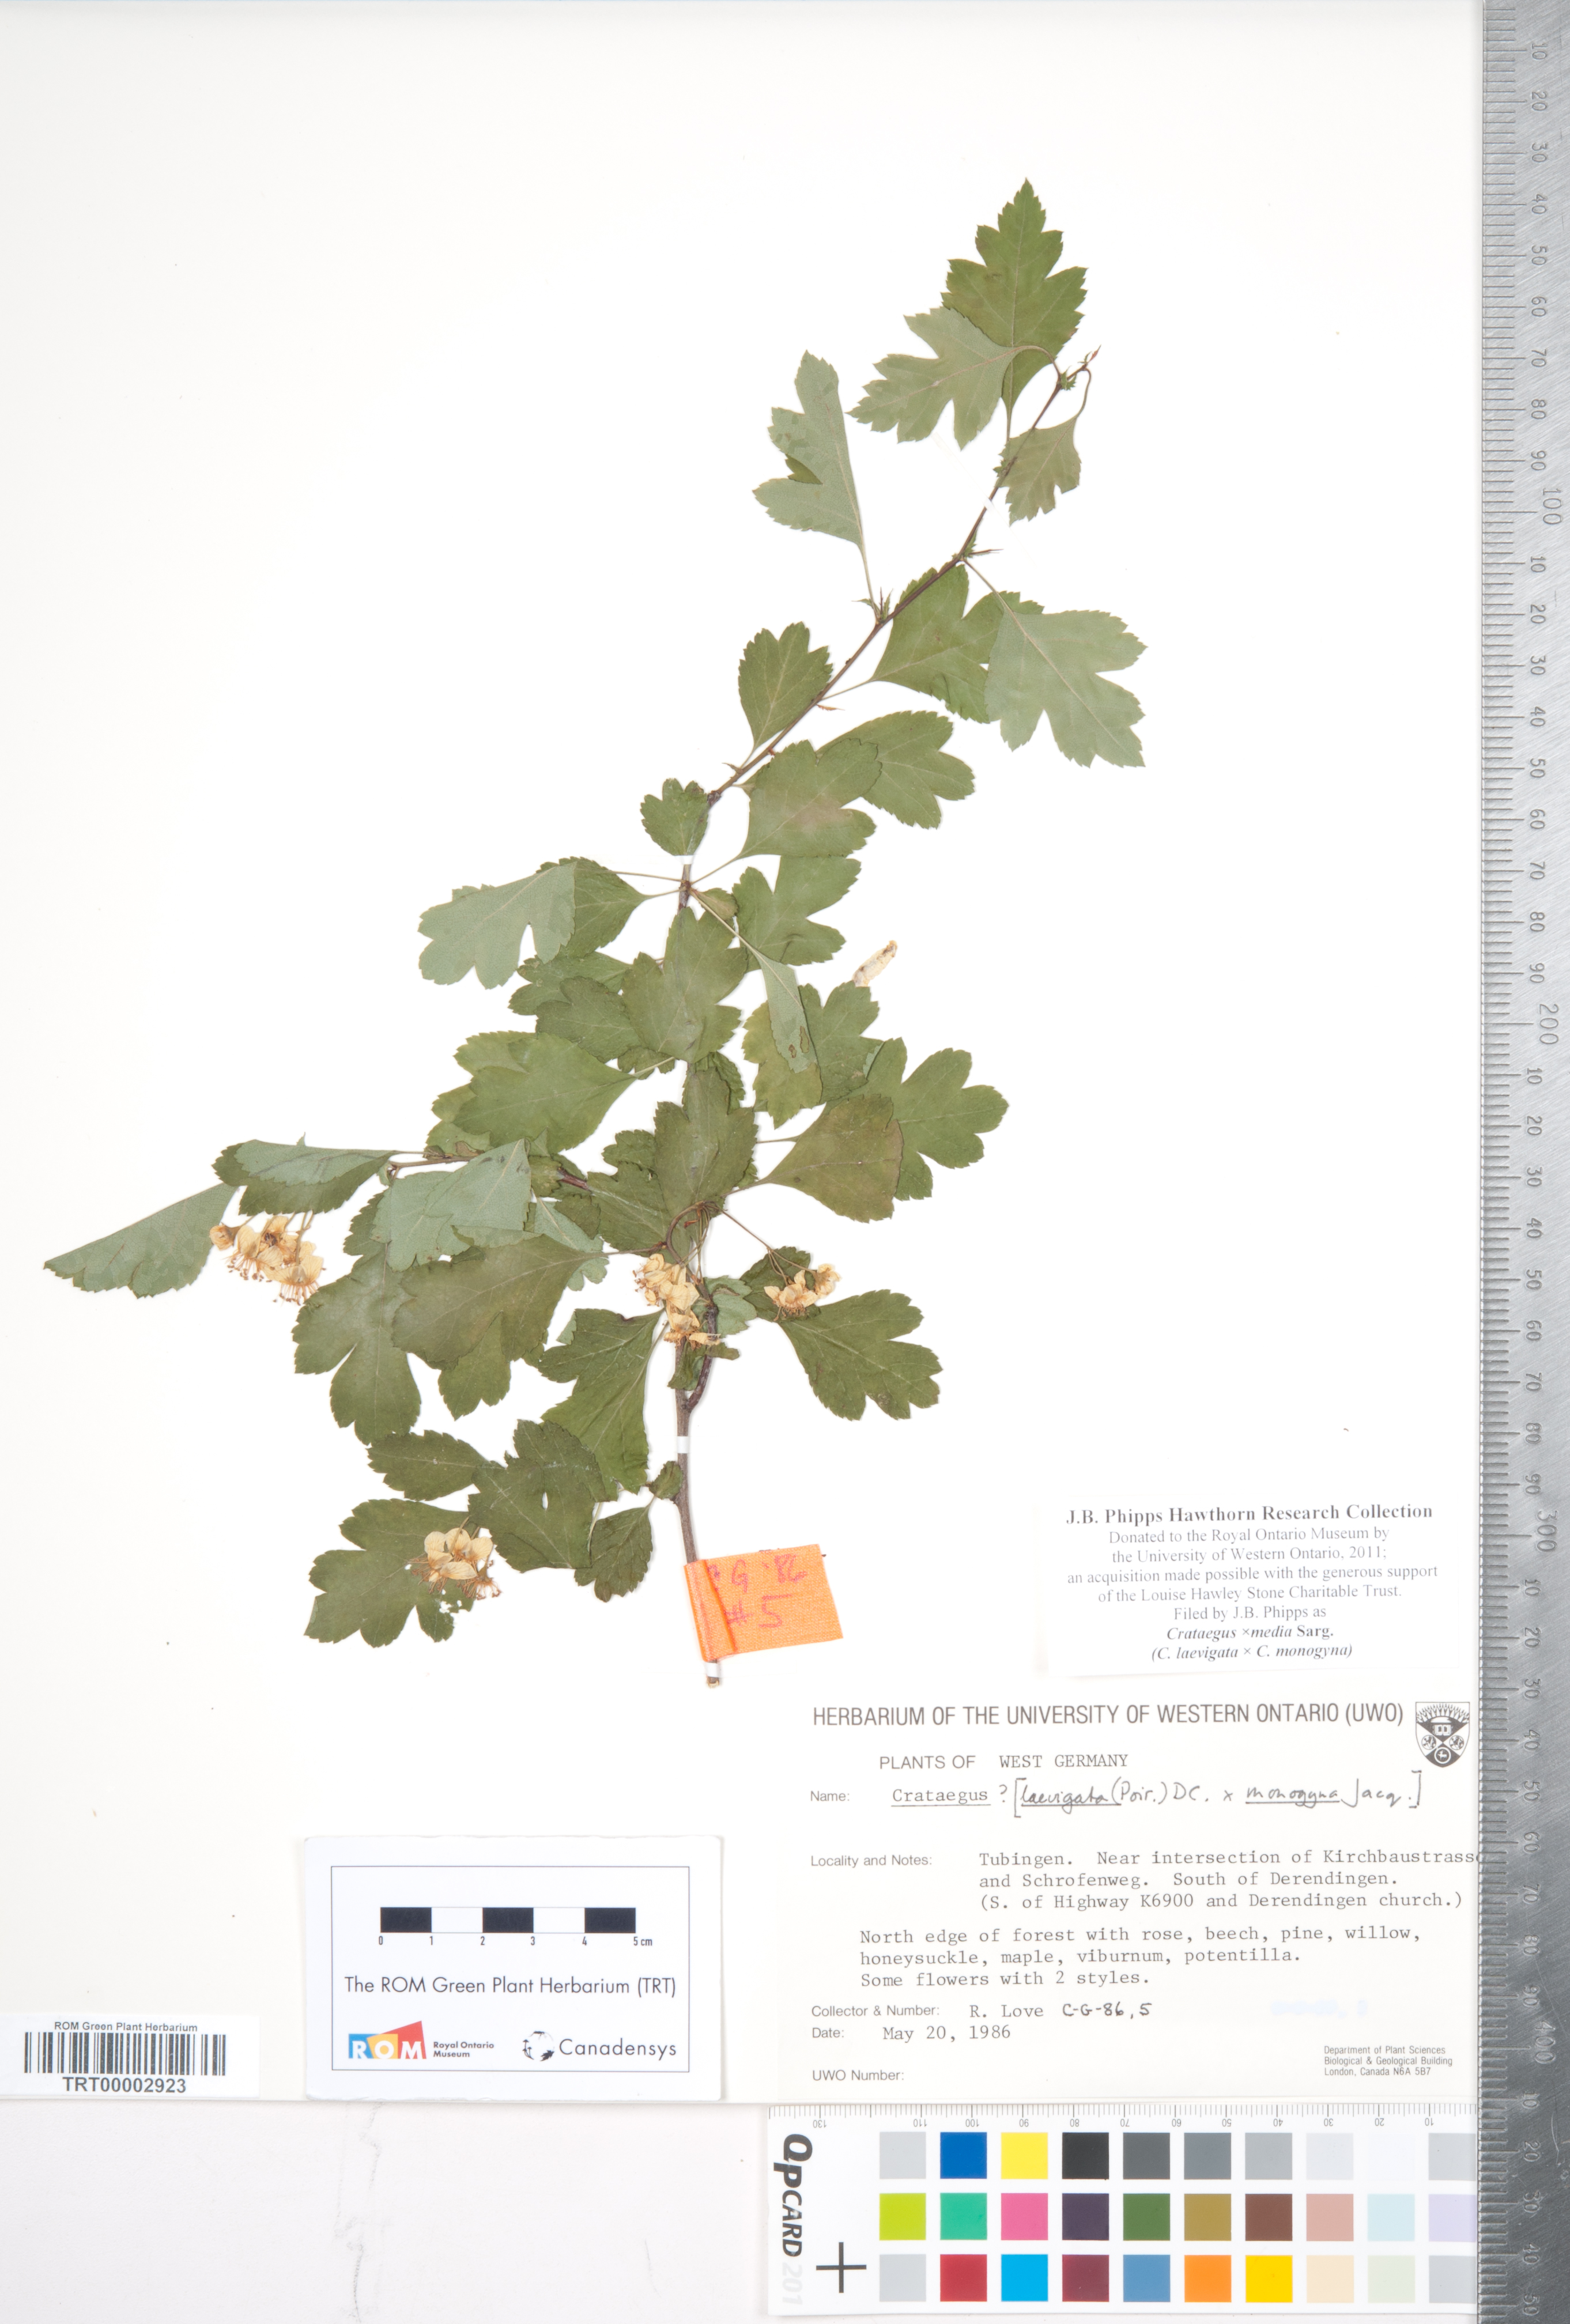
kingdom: Plantae
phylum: Tracheophyta
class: Magnoliopsida
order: Rosales
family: Rosaceae
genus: Crataegus
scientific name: Crataegus media
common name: Intermediate hawthorn
